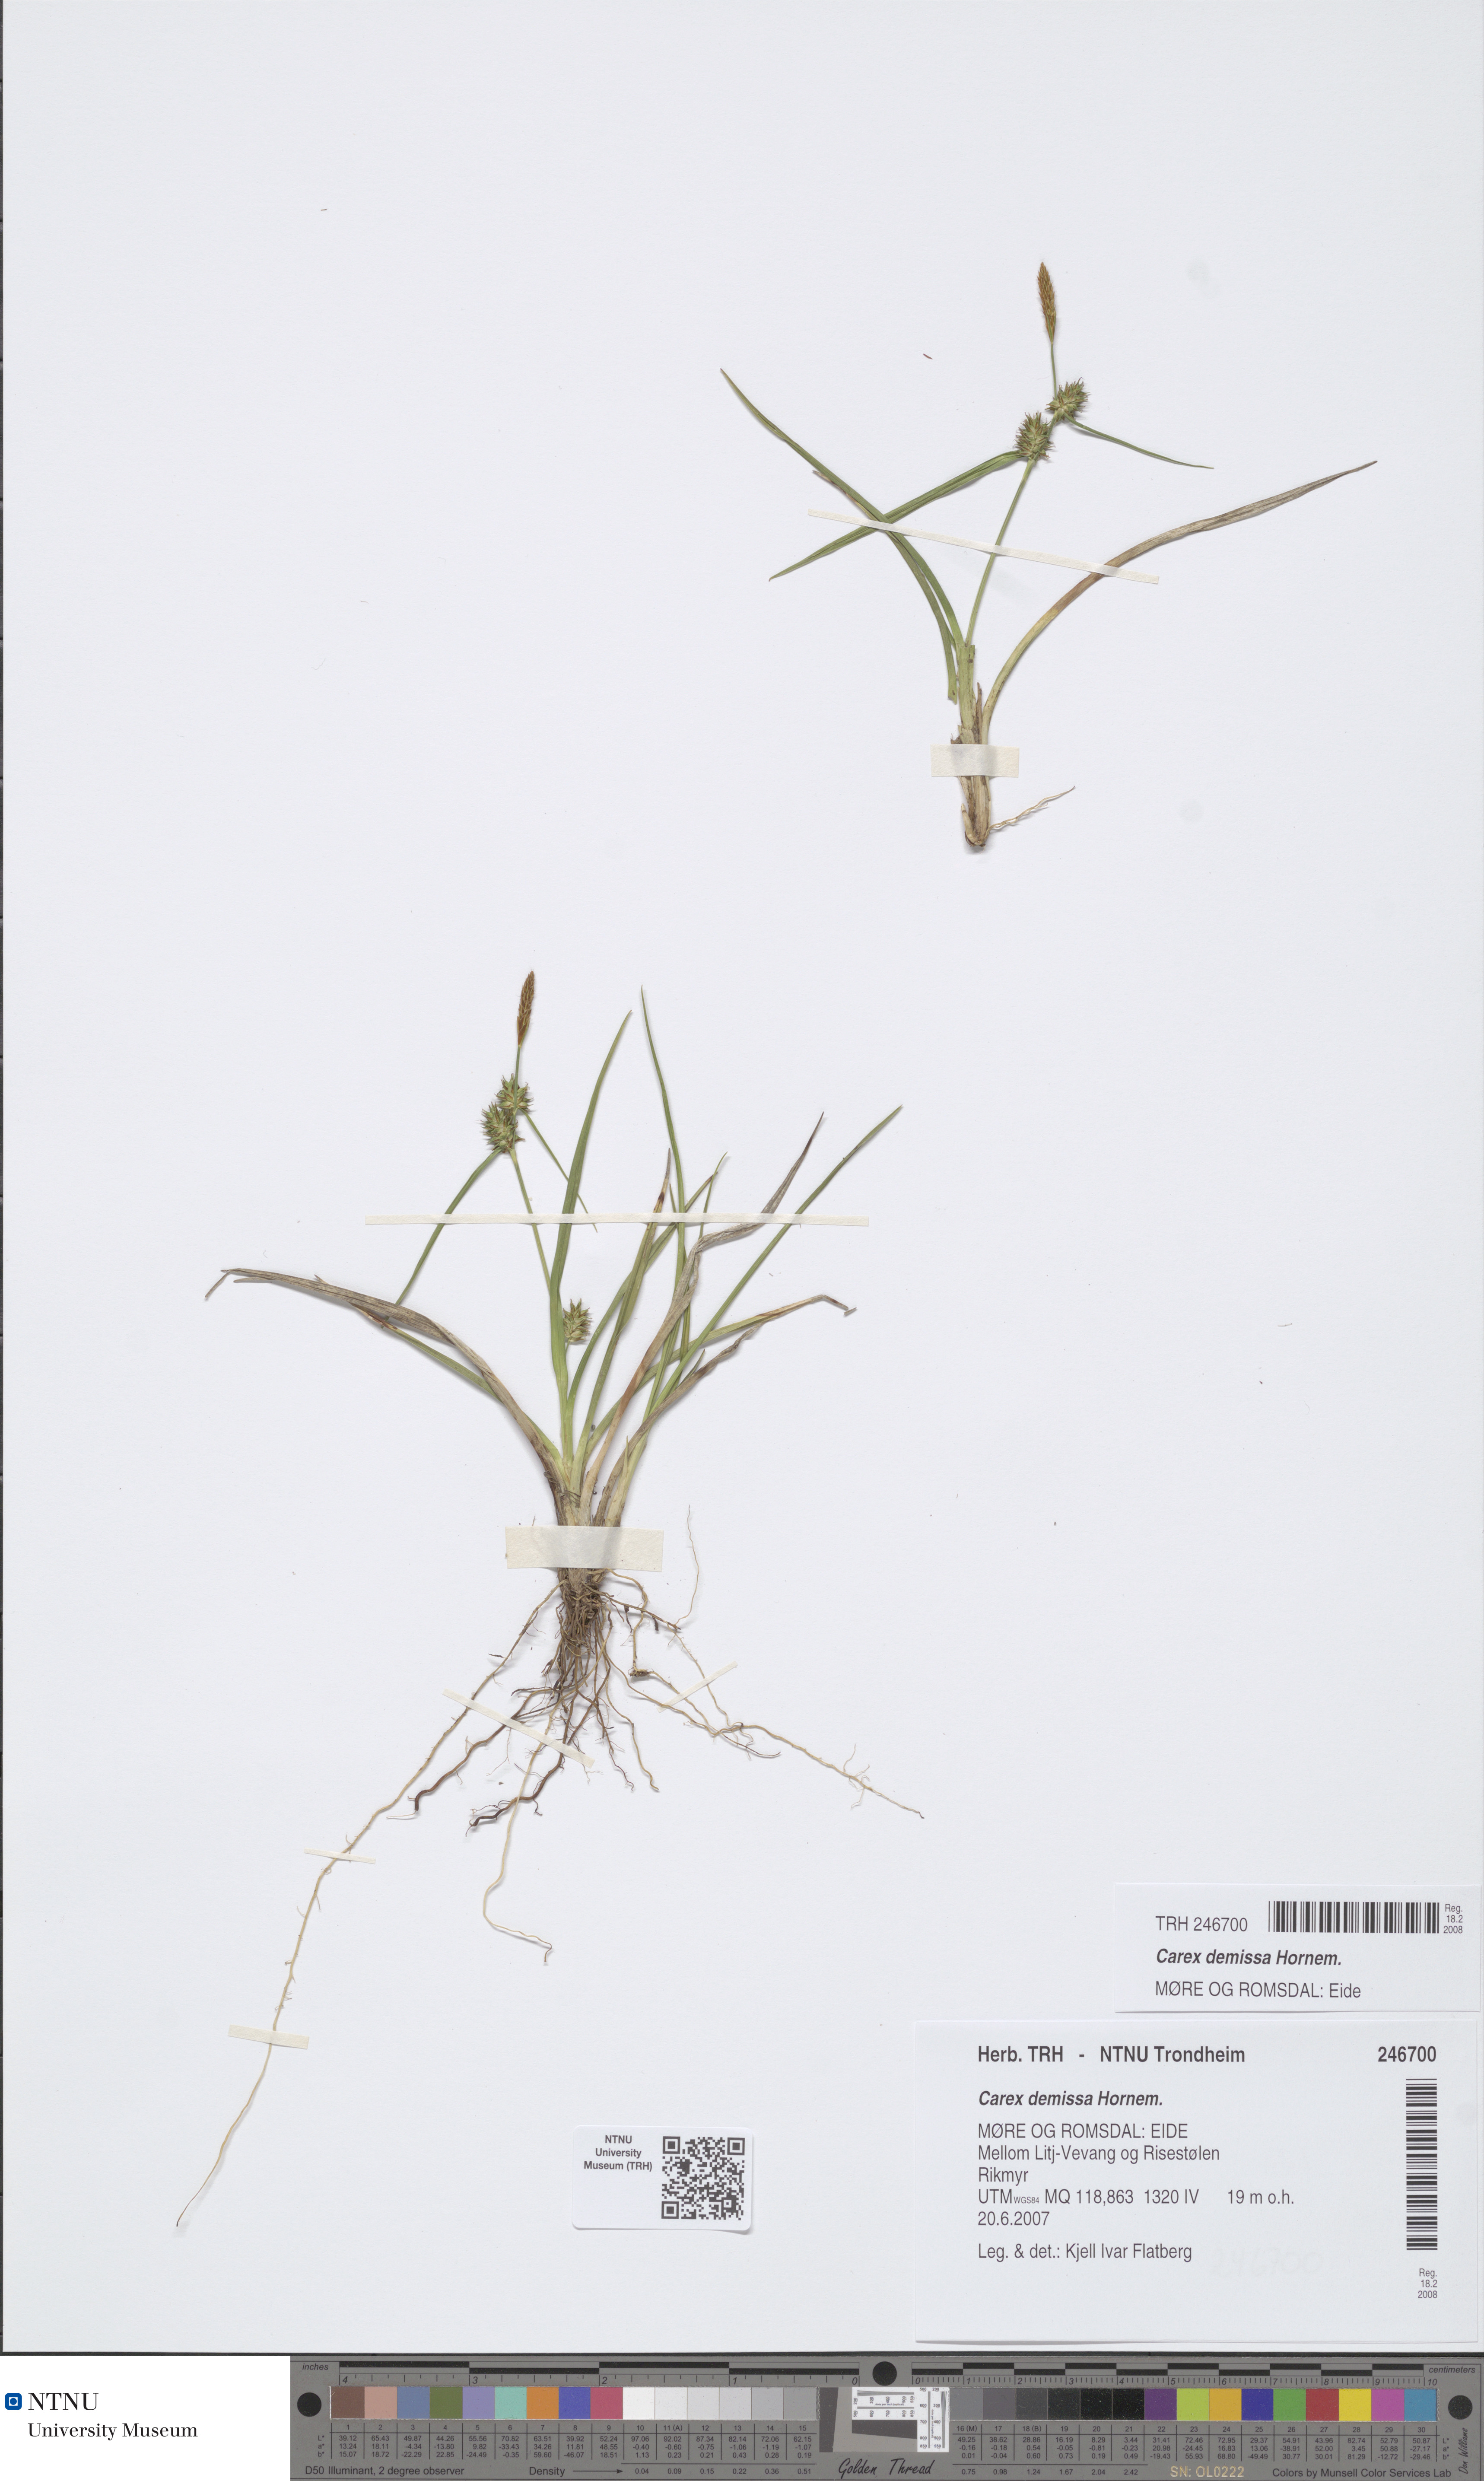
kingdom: Plantae
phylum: Tracheophyta
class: Liliopsida
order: Poales
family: Cyperaceae
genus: Carex
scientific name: Carex demissa
